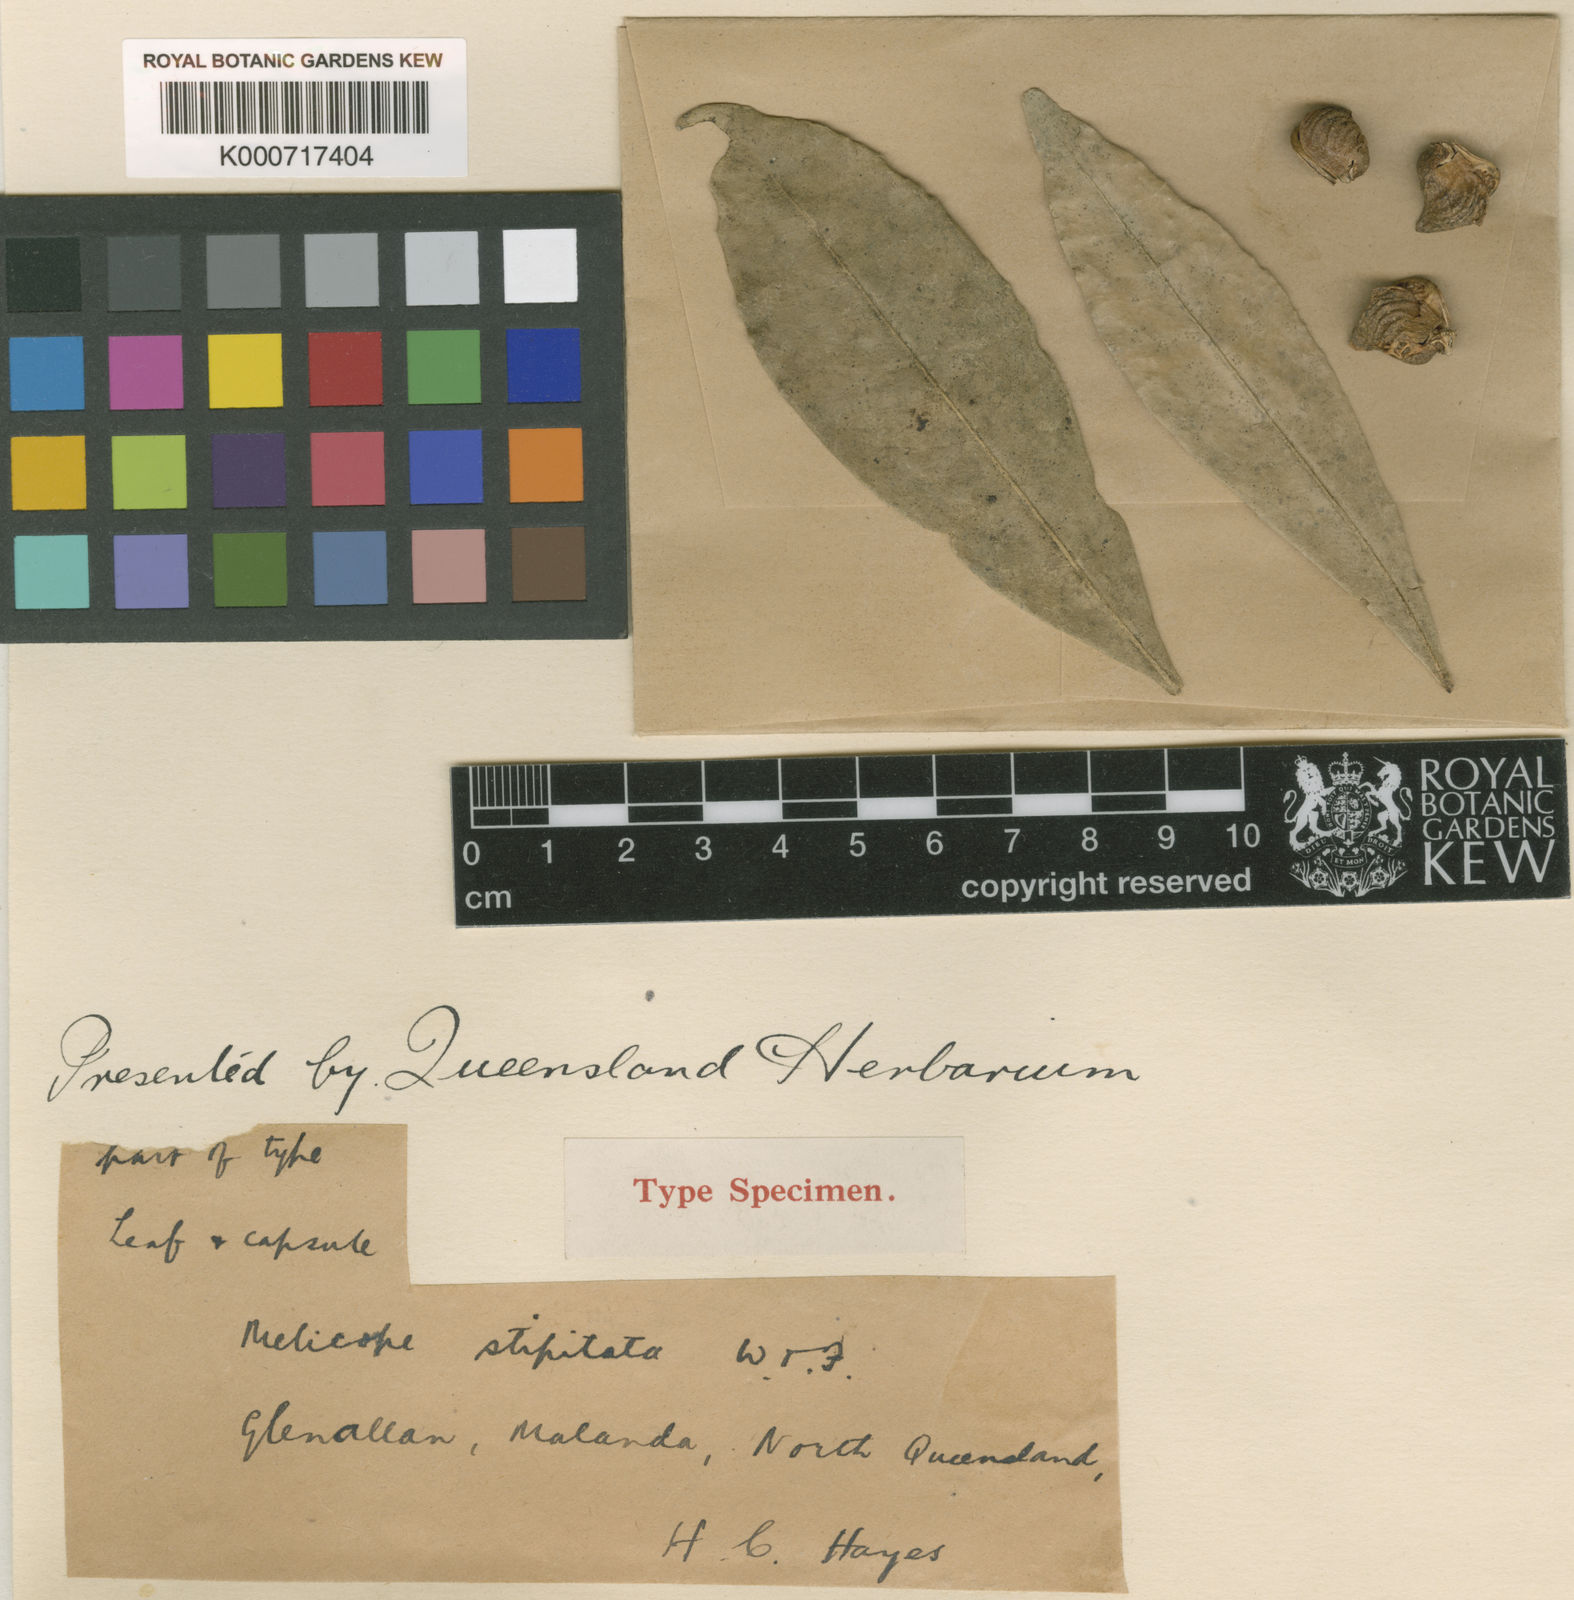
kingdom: Plantae
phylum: Tracheophyta
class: Magnoliopsida
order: Sapindales
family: Rutaceae
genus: Dinosperma
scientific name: Dinosperma stipitata
